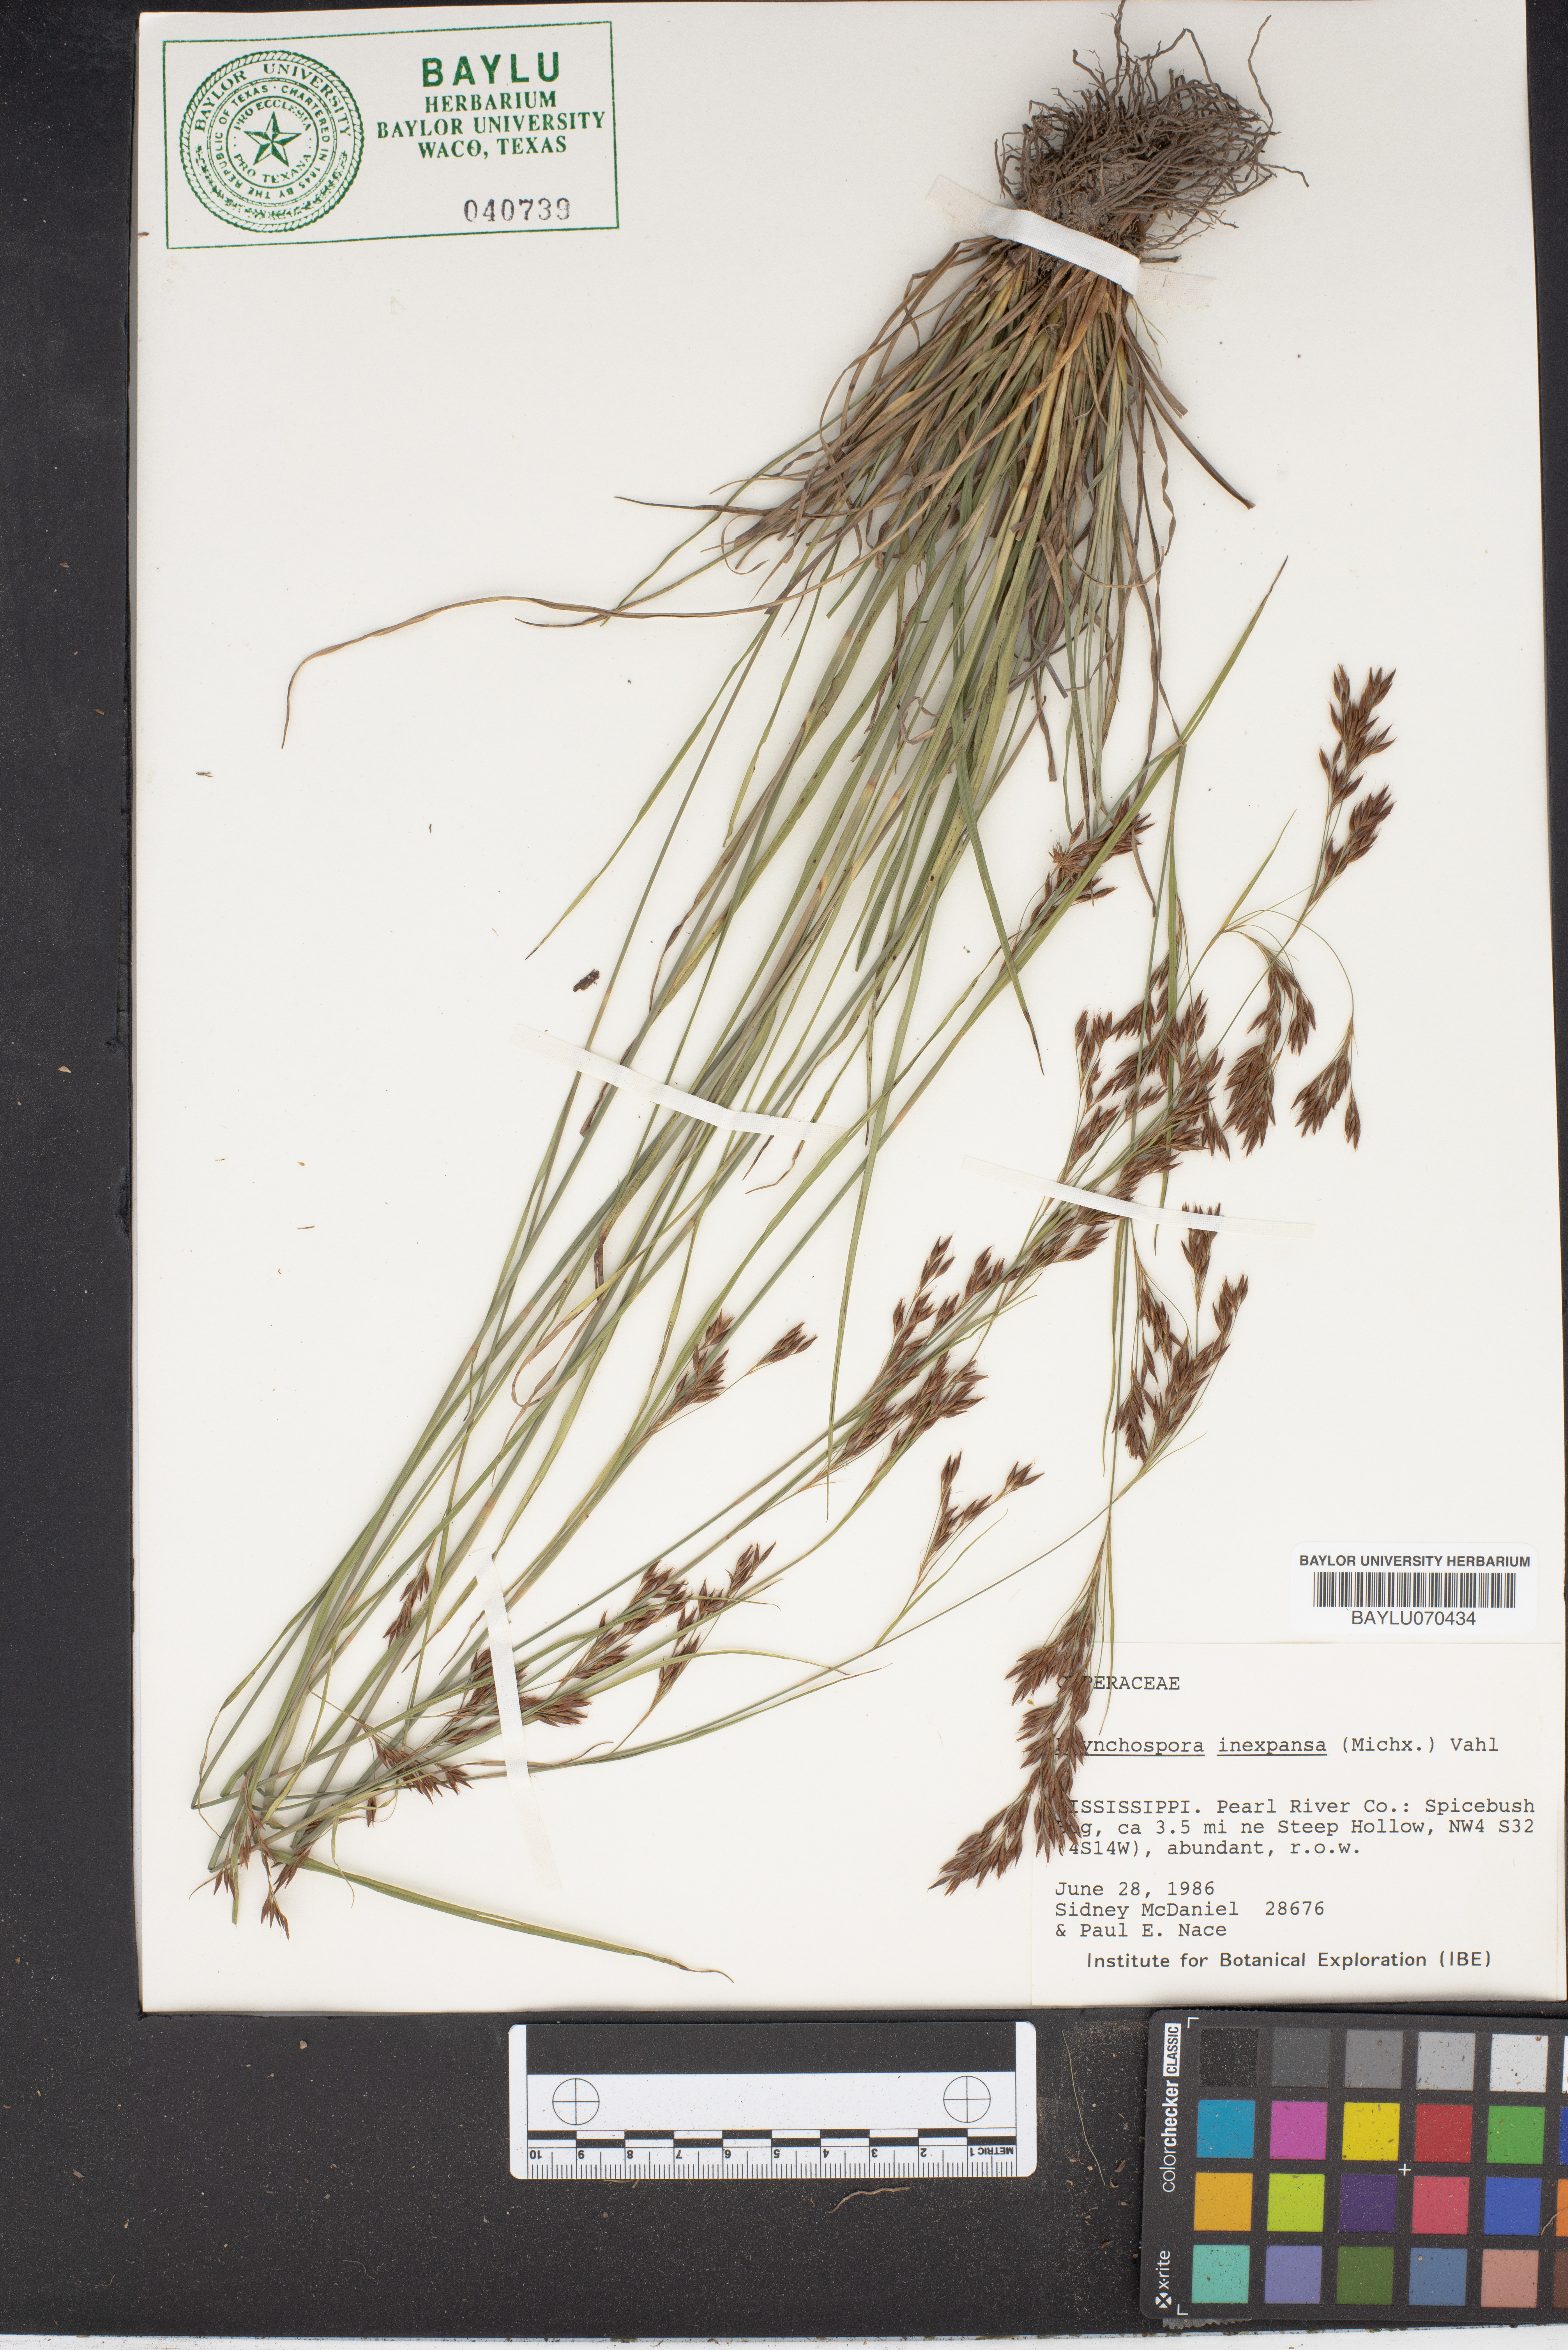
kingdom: Plantae
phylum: Tracheophyta
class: Liliopsida
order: Poales
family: Cyperaceae
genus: Rhynchospora
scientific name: Rhynchospora inexpansa
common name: Nodding beaksedge
